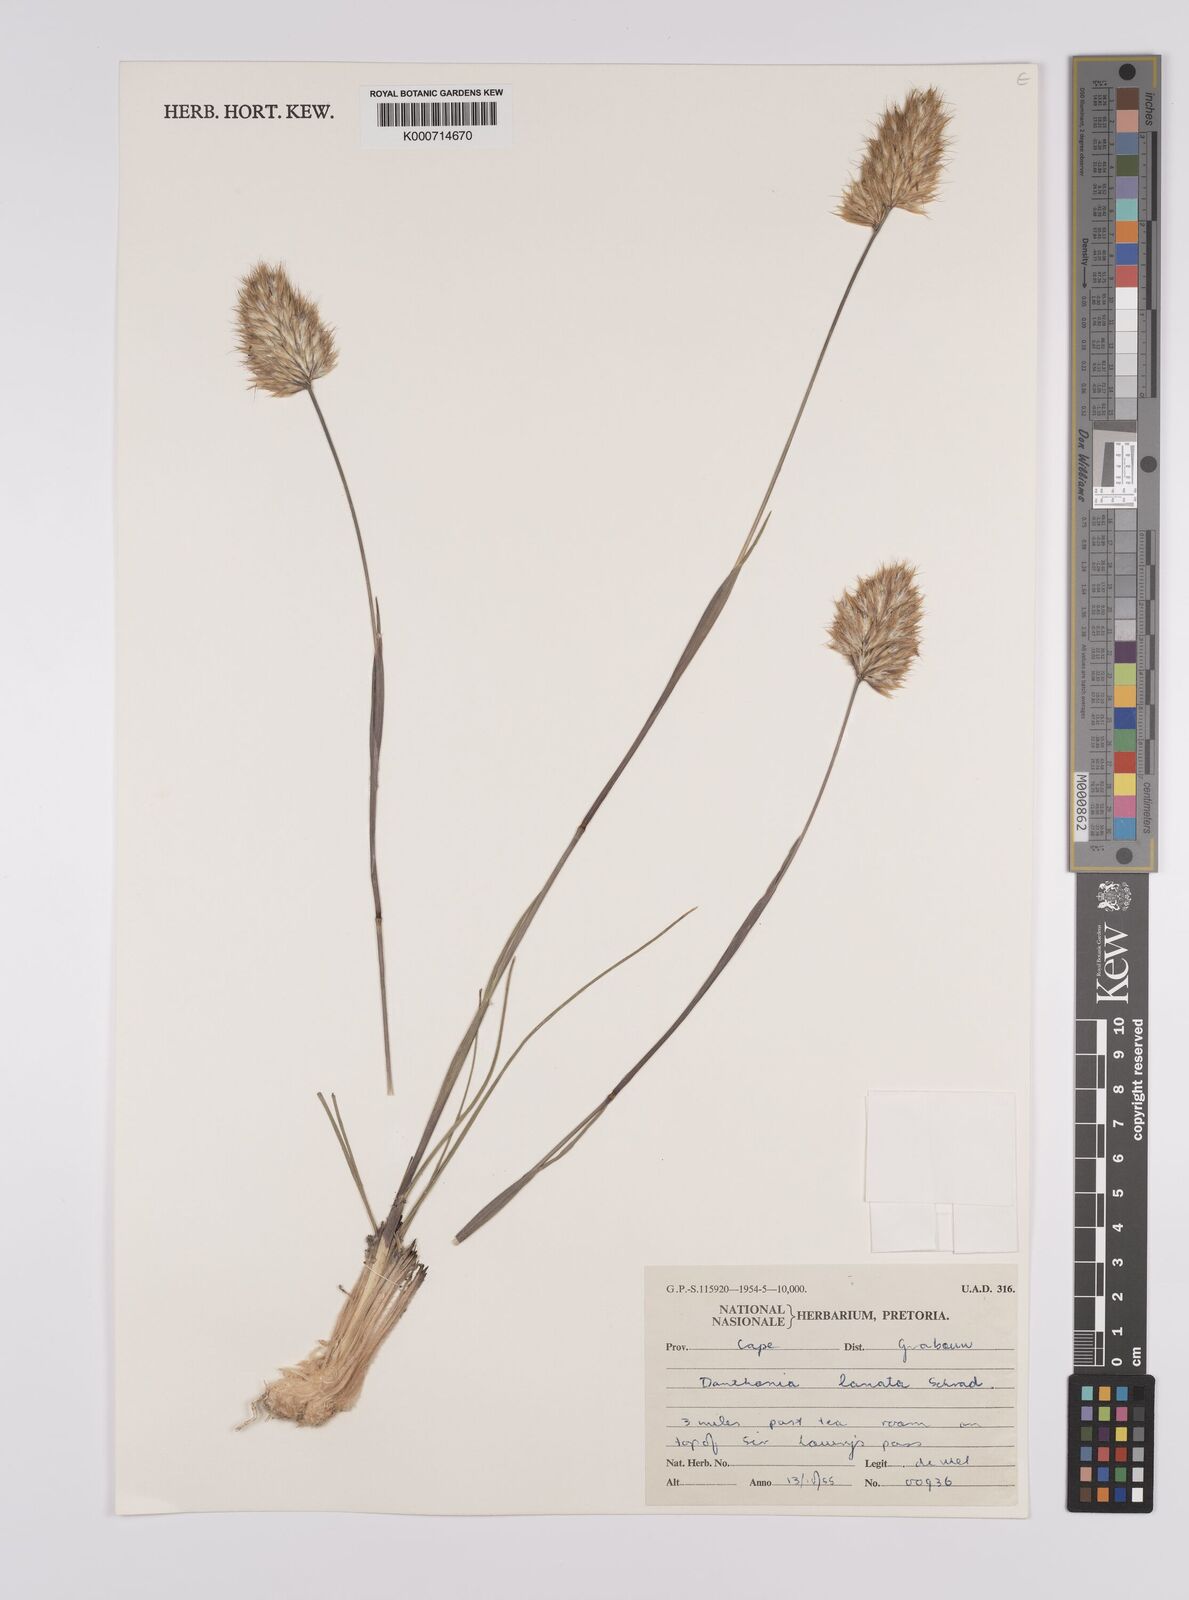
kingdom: Plantae
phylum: Tracheophyta
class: Liliopsida
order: Poales
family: Poaceae
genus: Rytidosperma
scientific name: Rytidosperma
